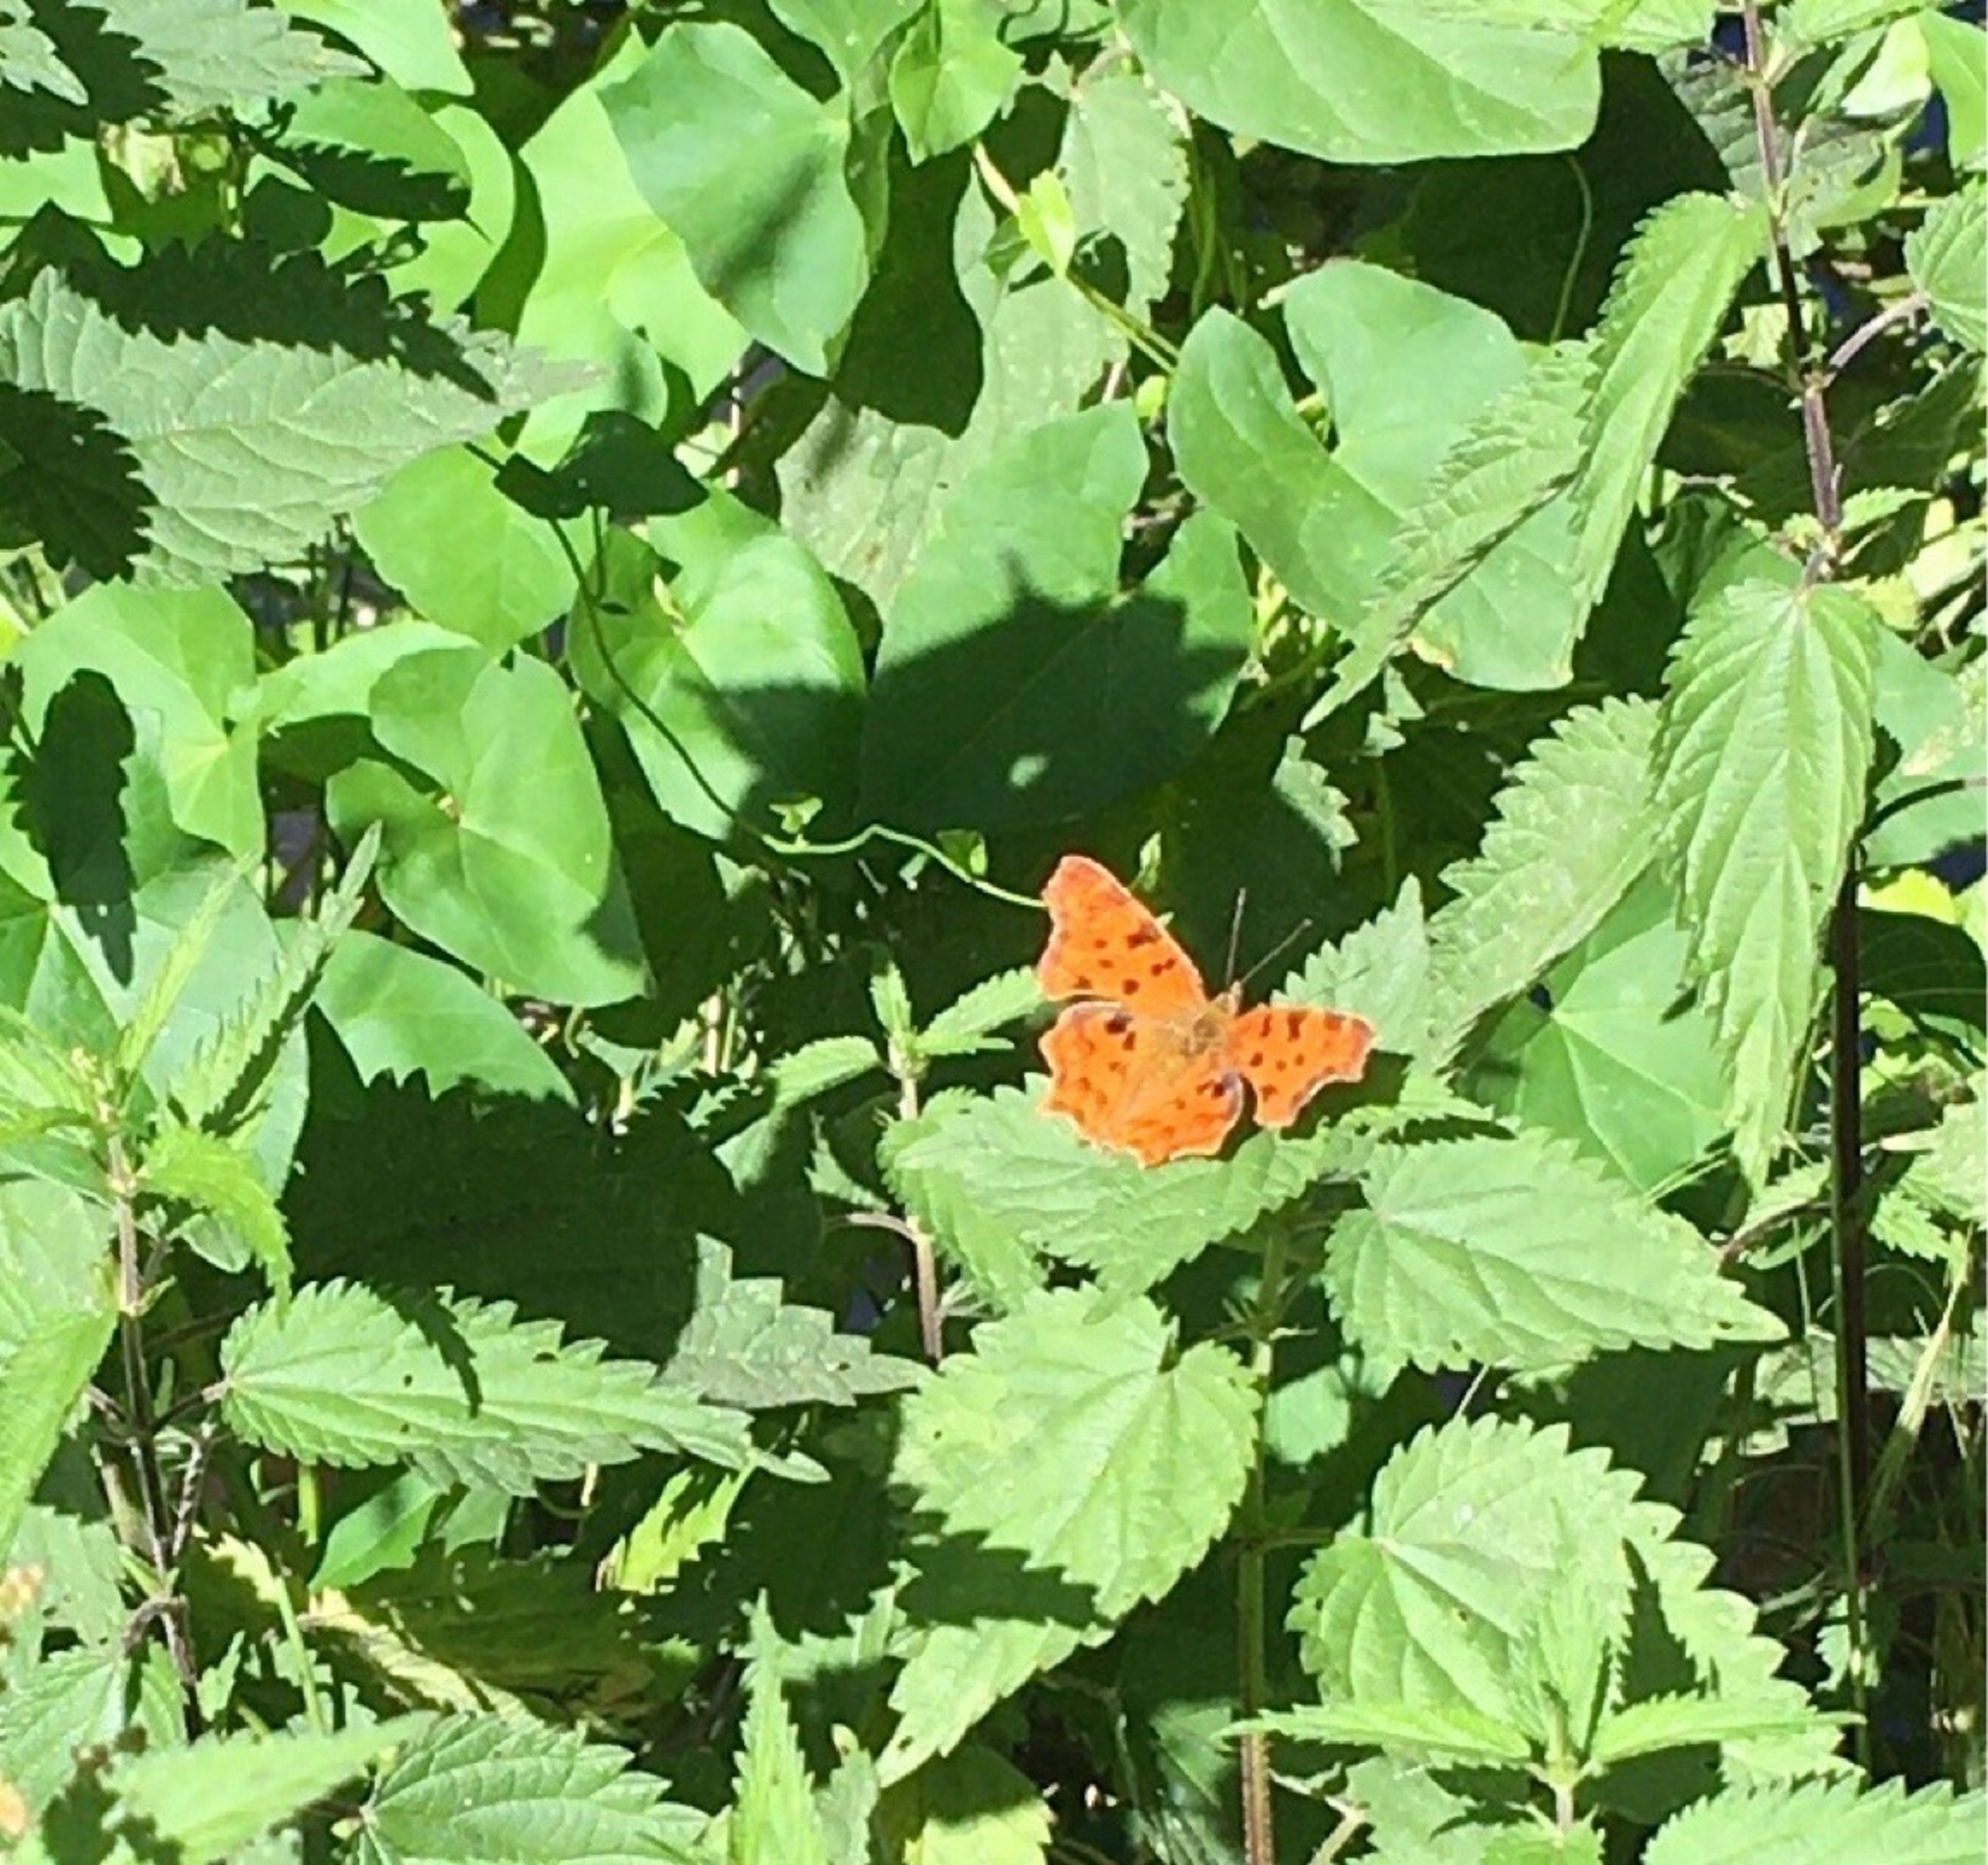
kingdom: Animalia
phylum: Arthropoda
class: Insecta
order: Lepidoptera
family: Nymphalidae
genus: Polygonia
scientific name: Polygonia c-album
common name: Det hvide C
